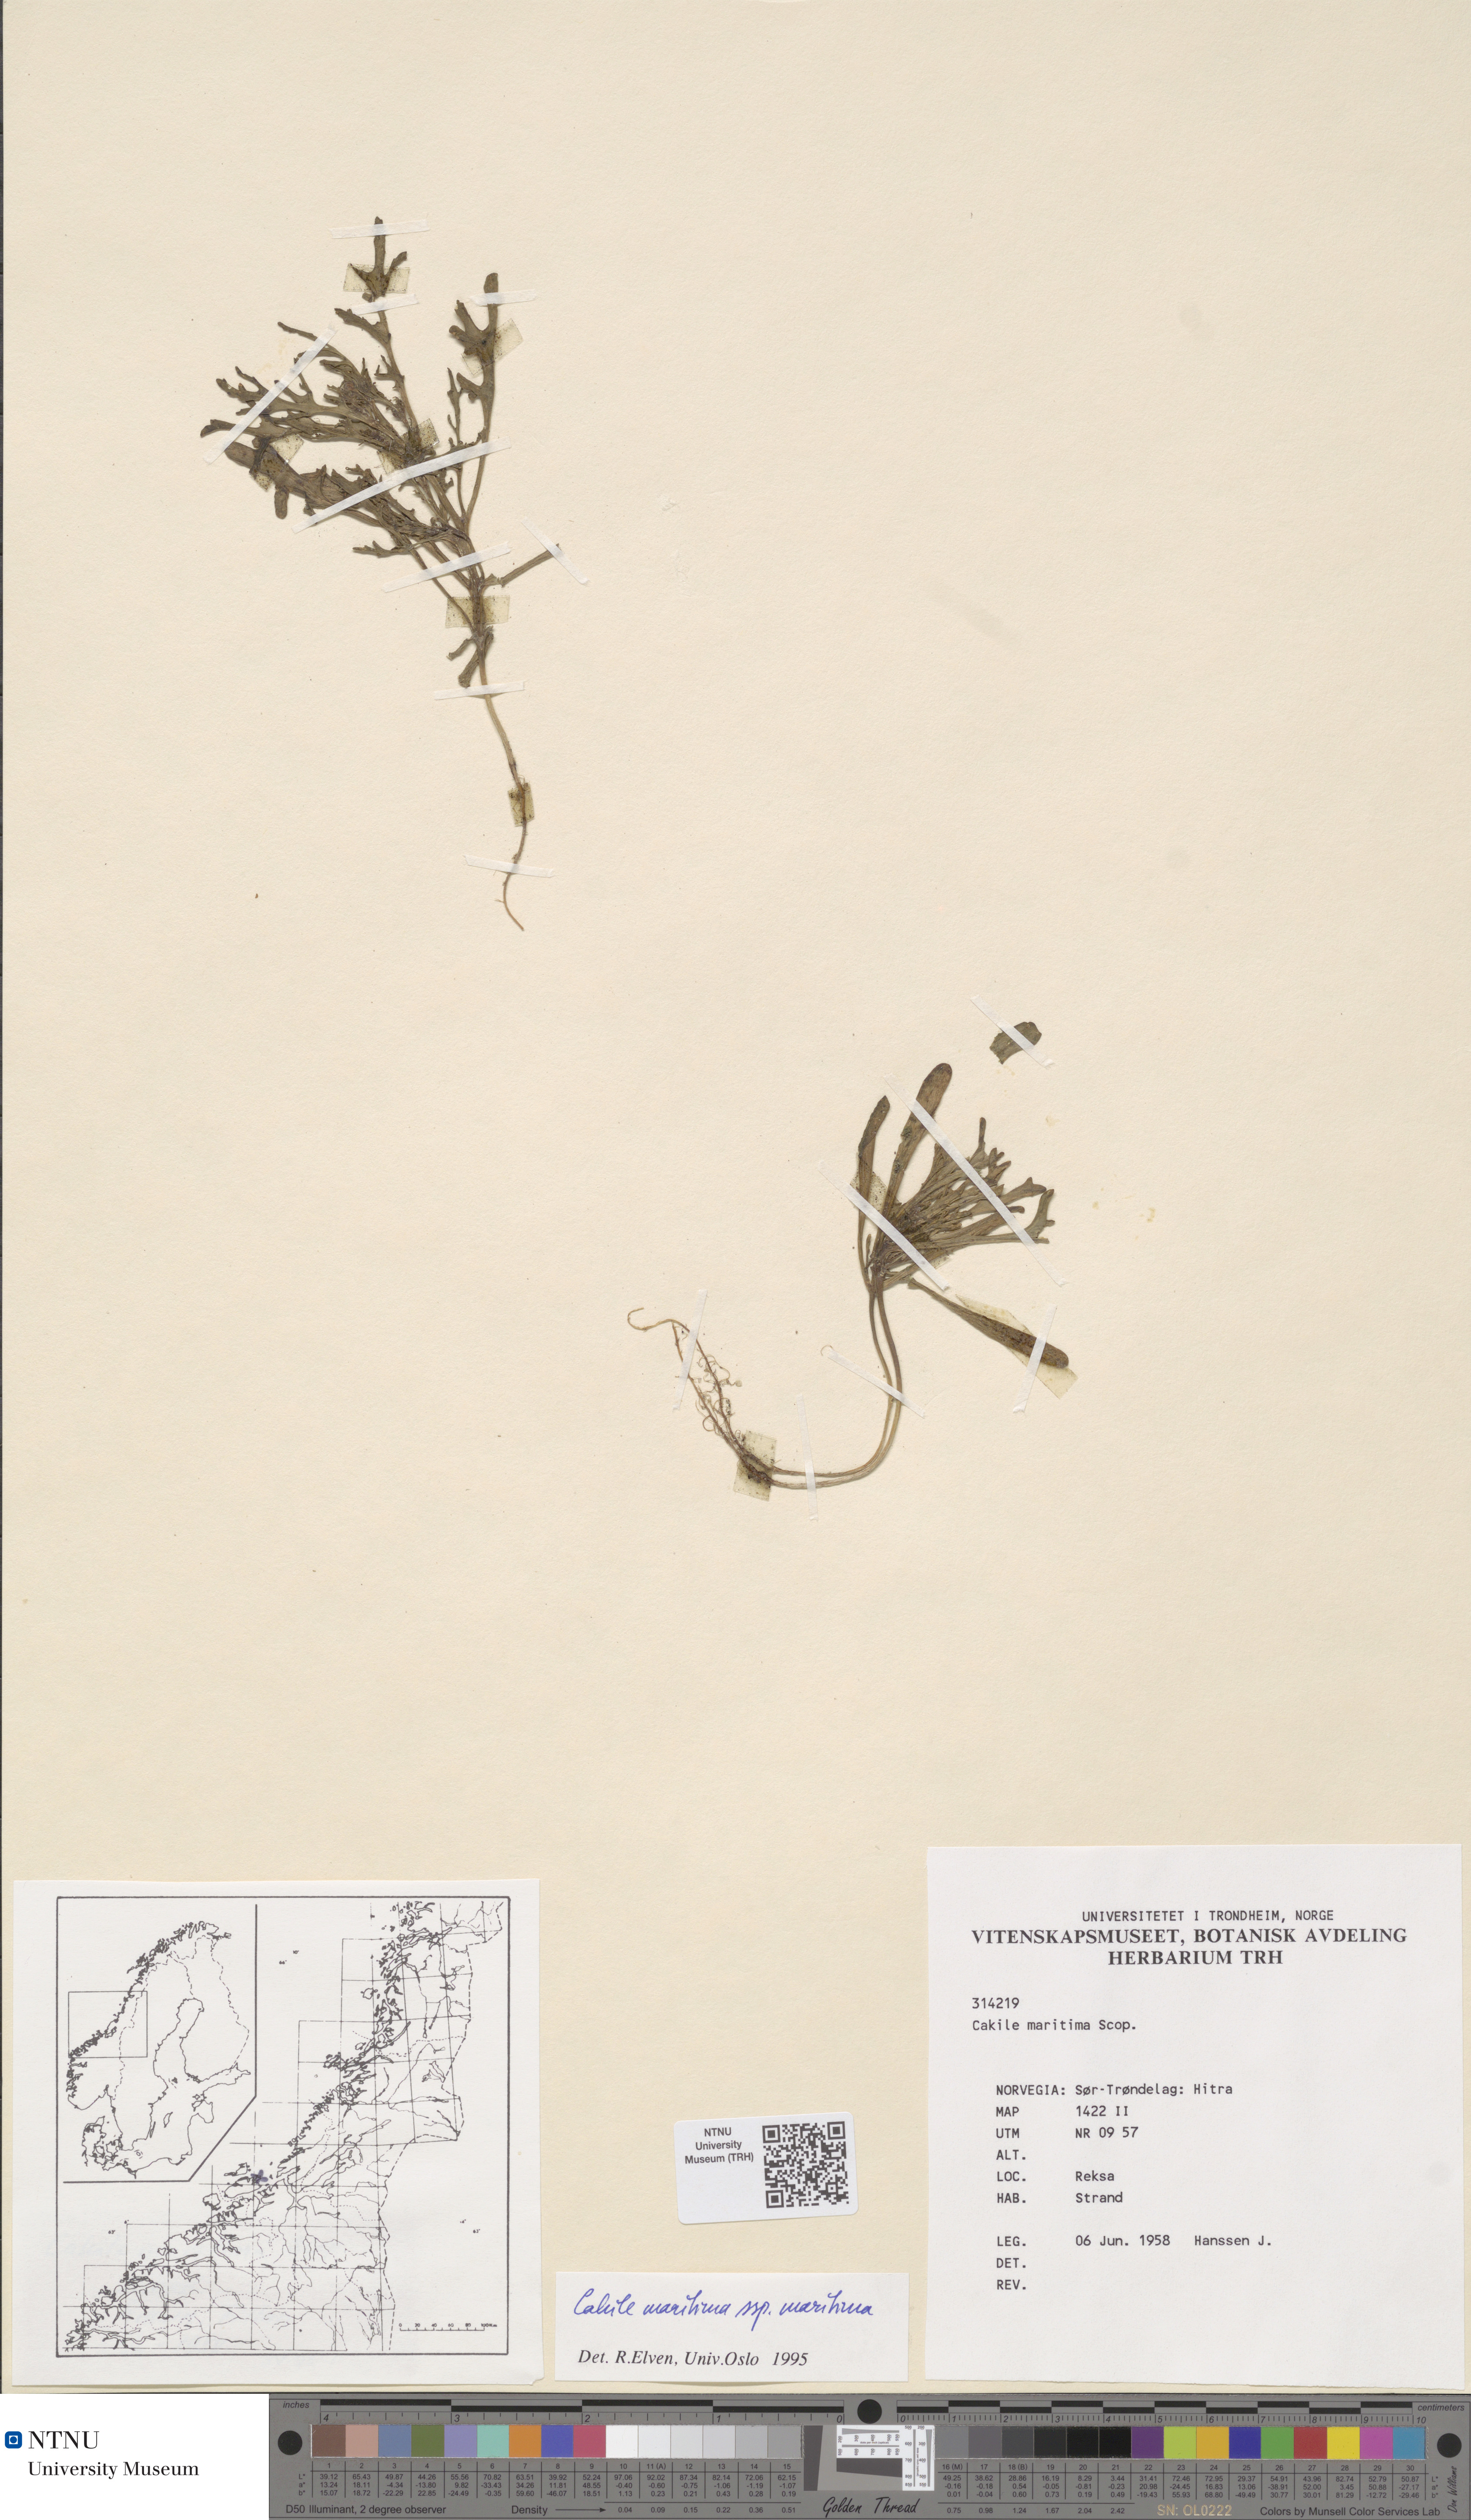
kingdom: Plantae
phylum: Tracheophyta
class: Magnoliopsida
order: Brassicales
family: Brassicaceae
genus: Cakile
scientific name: Cakile maritima
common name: Sea rocket
